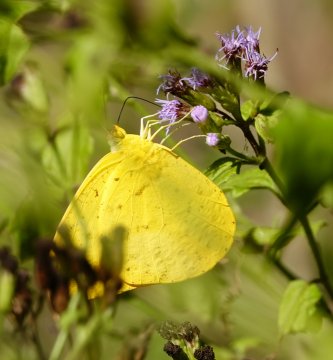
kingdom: Animalia
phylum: Arthropoda
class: Insecta
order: Lepidoptera
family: Pieridae
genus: Phoebis
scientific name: Phoebis agarithe
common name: Large Orange Sulphur
